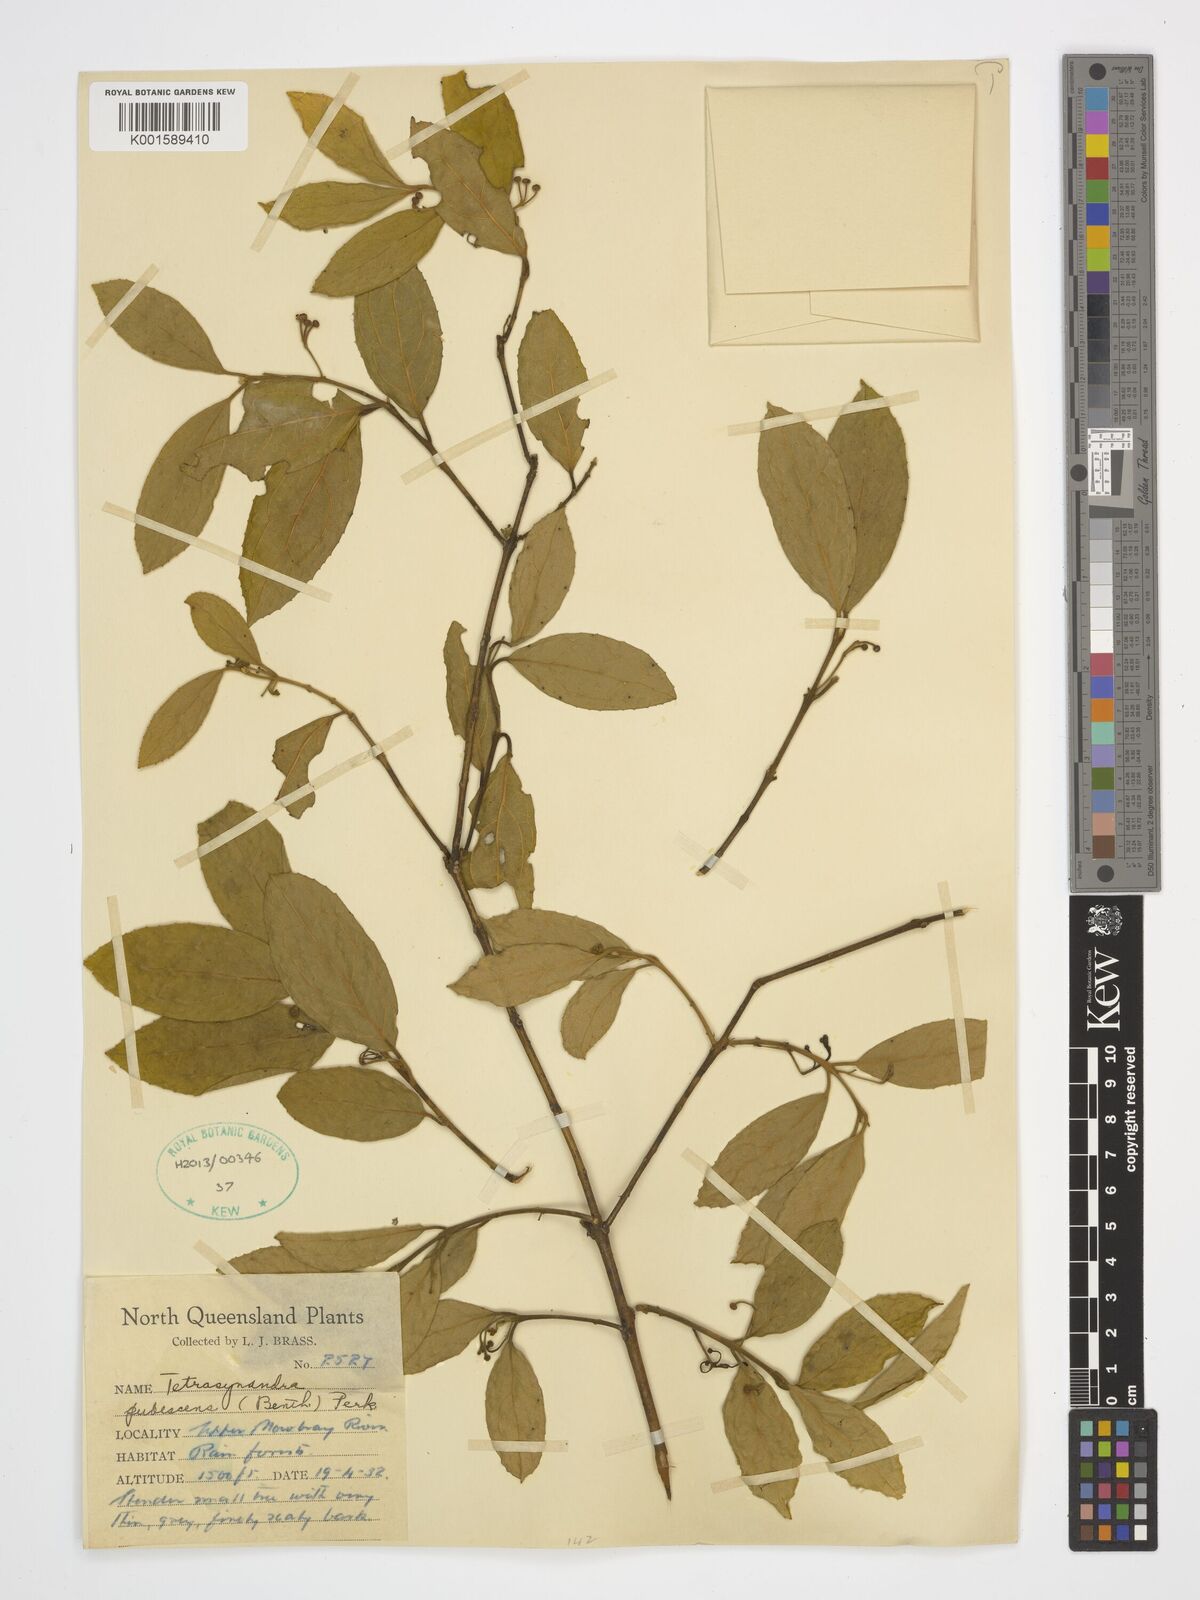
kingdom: Plantae
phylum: Tracheophyta
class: Magnoliopsida
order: Laurales
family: Monimiaceae
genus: Wilkiea
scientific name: Wilkiea pubescens
